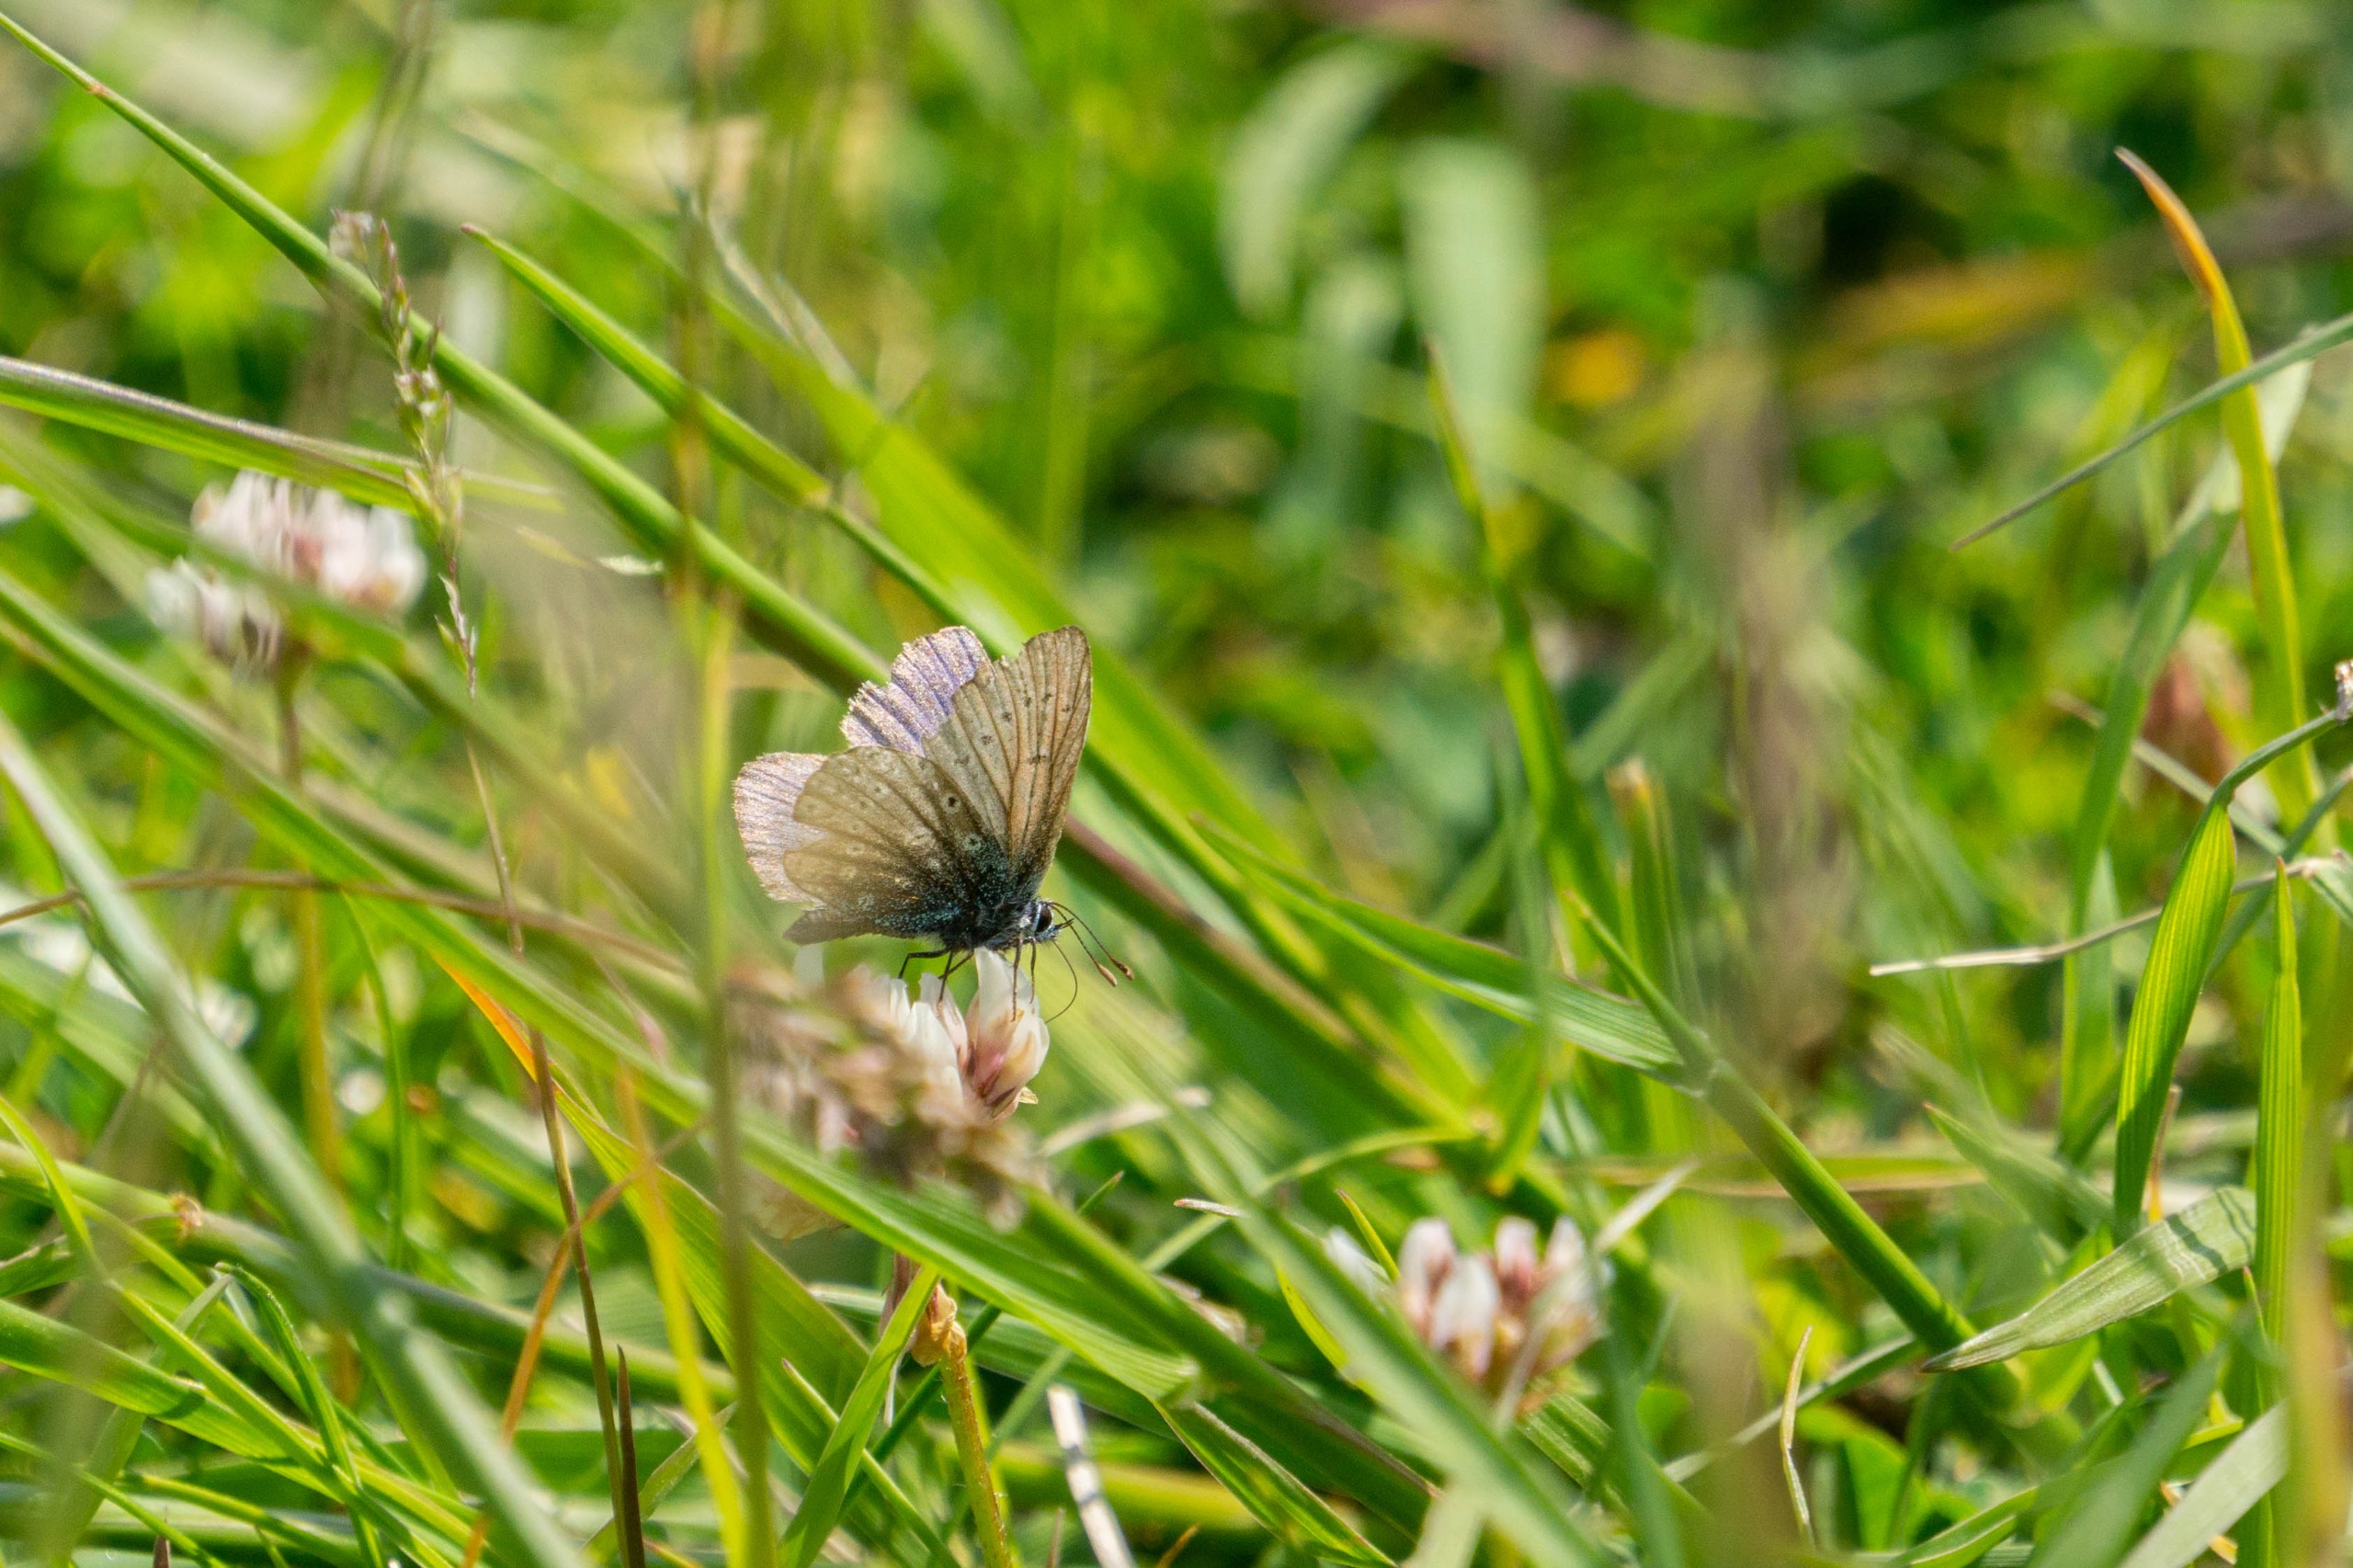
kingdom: Animalia
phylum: Arthropoda
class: Insecta
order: Lepidoptera
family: Lycaenidae
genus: Polyommatus
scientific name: Polyommatus icarus
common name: Almindelig blåfugl
